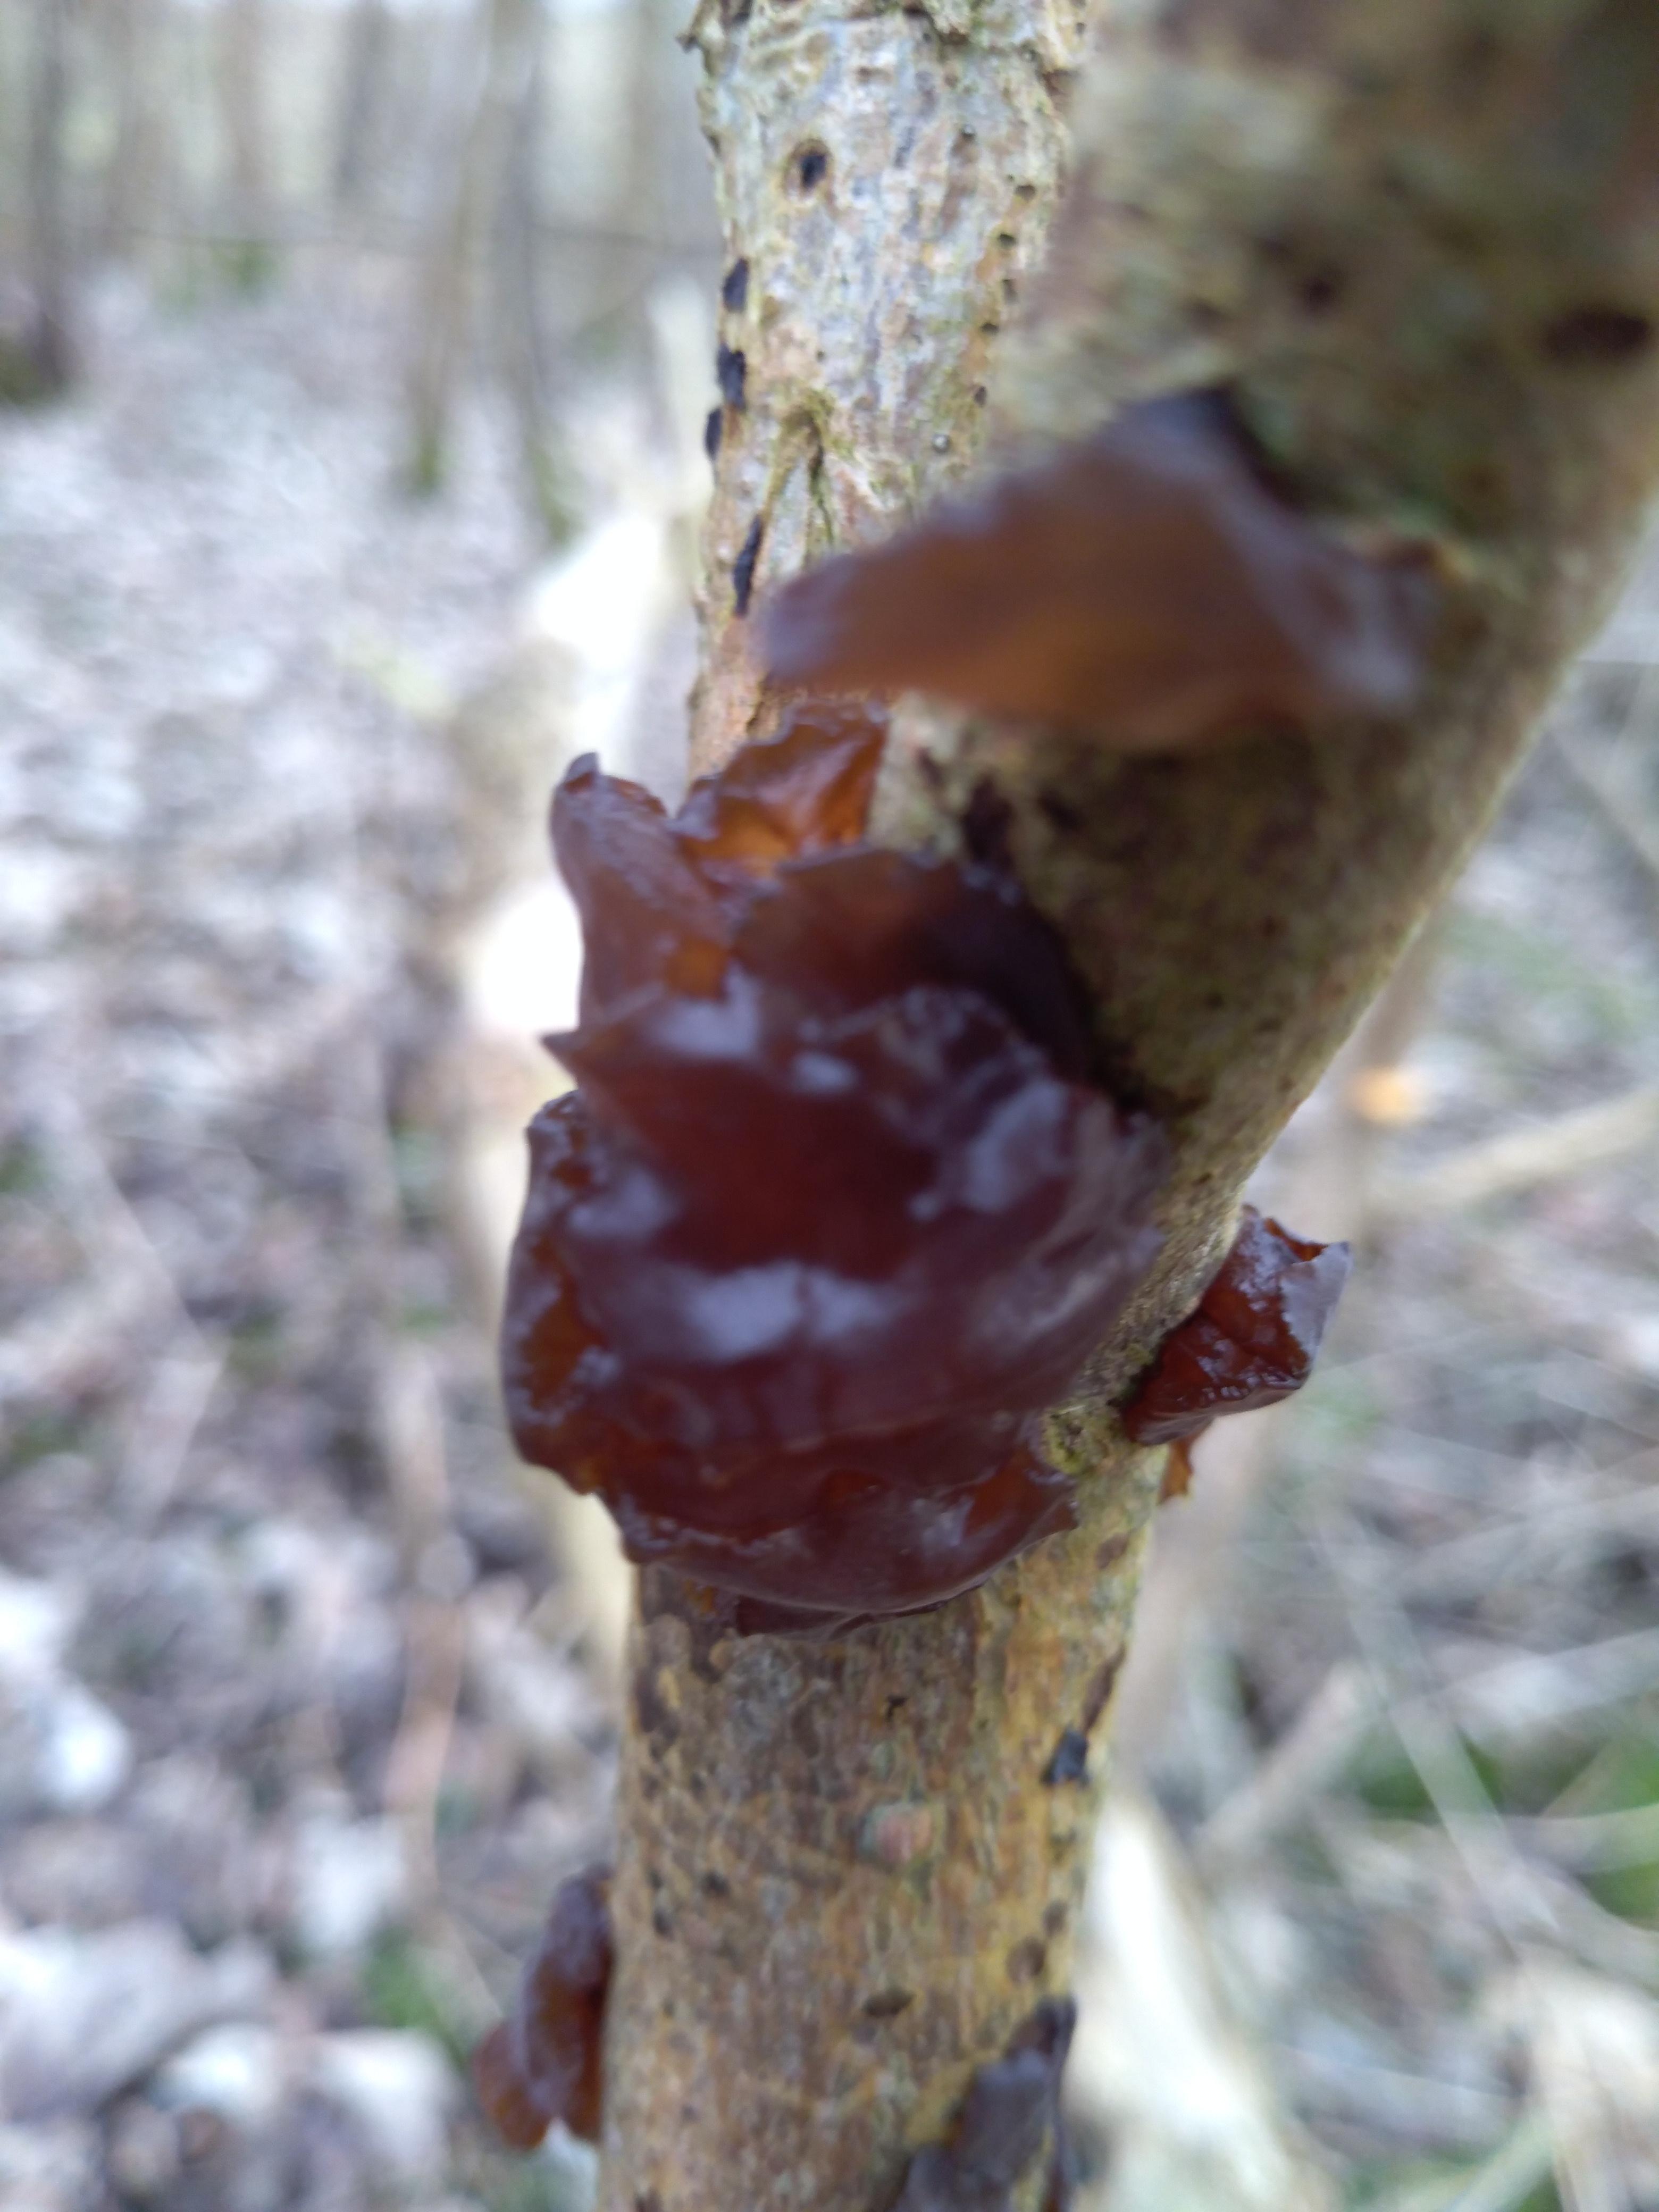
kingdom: Fungi
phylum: Basidiomycota
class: Agaricomycetes
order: Auriculariales
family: Auriculariaceae
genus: Exidia
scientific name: Exidia recisa
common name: pile-bævretop
